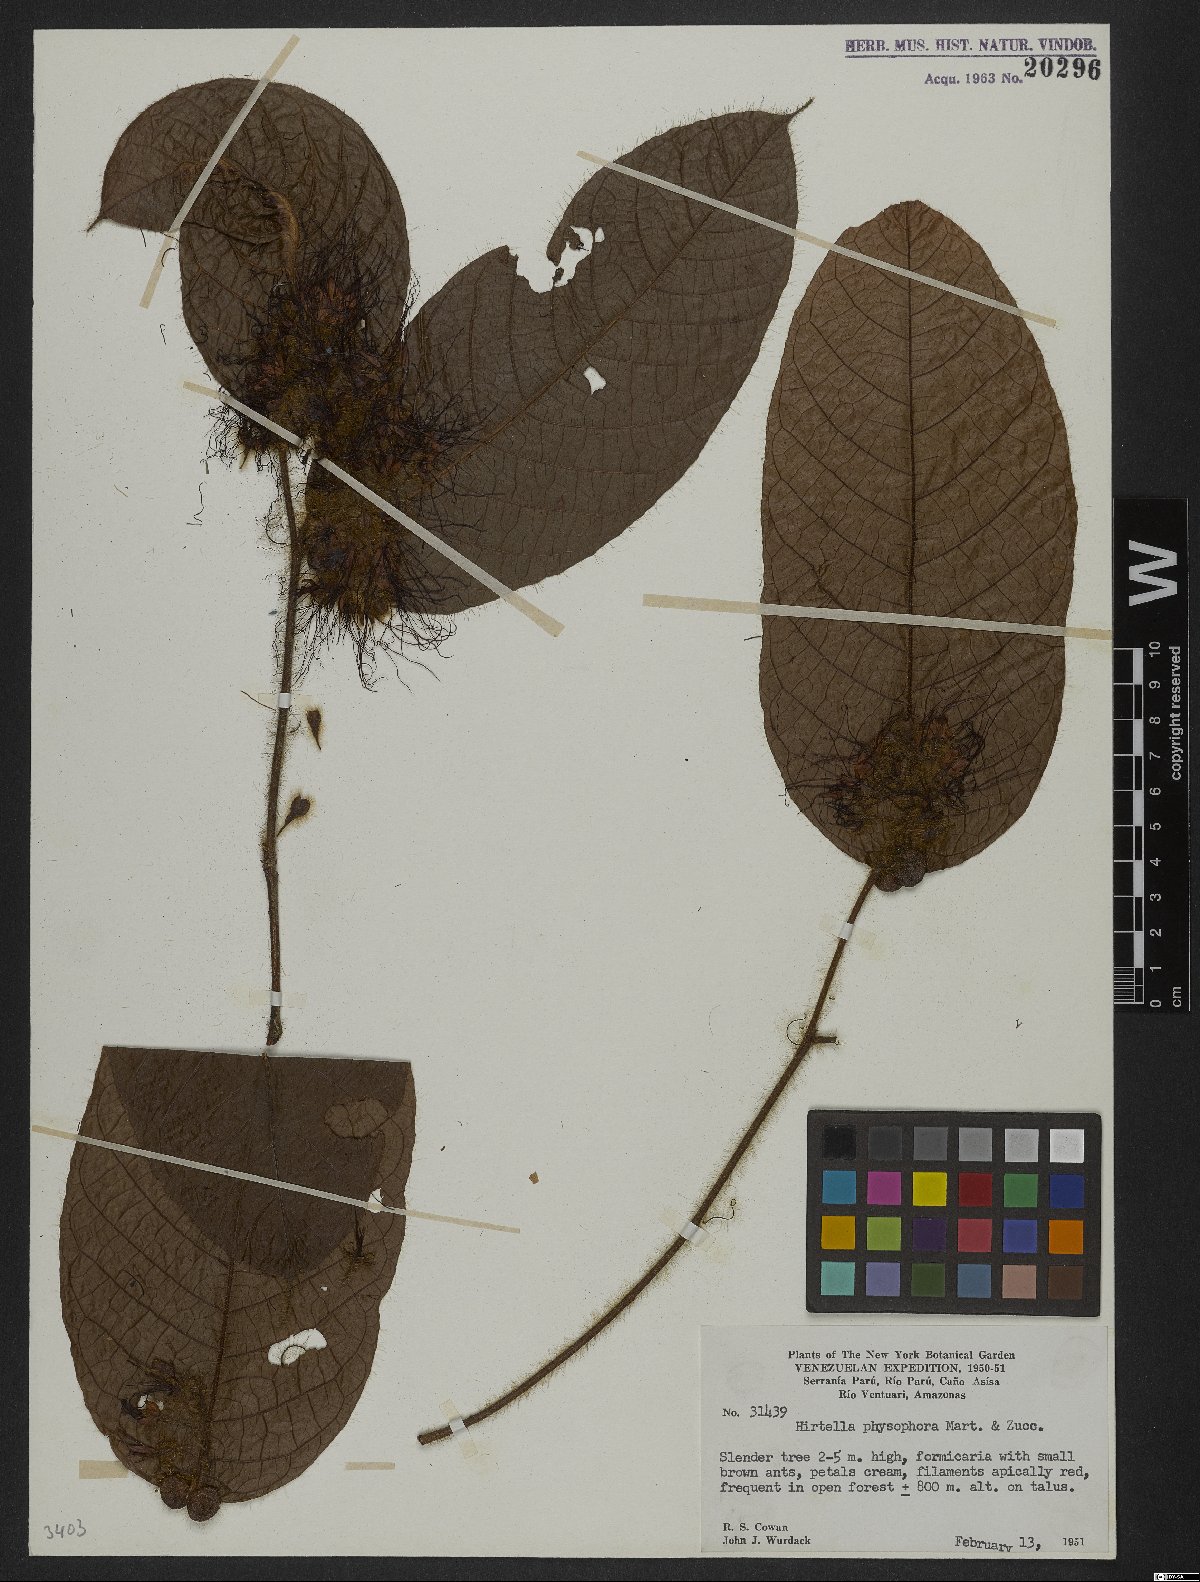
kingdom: Plantae
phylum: Tracheophyta
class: Magnoliopsida
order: Malpighiales
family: Chrysobalanaceae
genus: Hirtella
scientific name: Hirtella physophora
